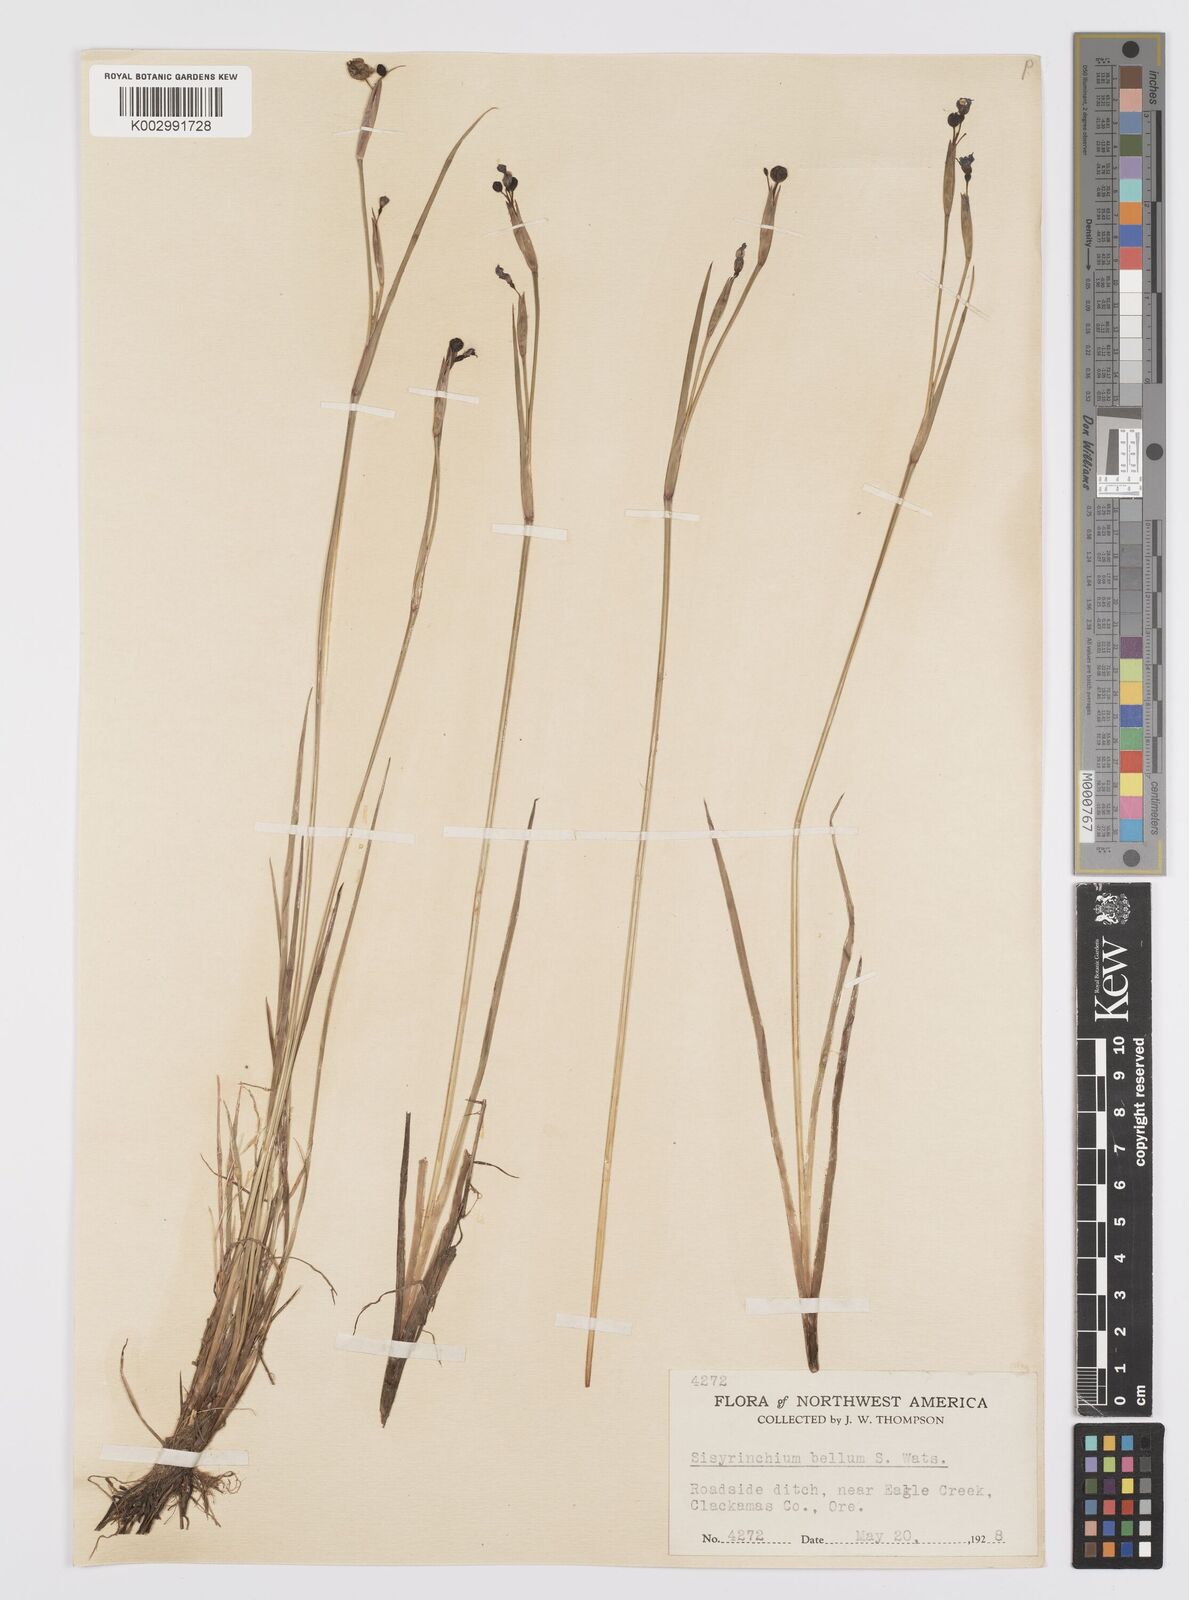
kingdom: Plantae
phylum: Tracheophyta
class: Liliopsida
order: Asparagales
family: Iridaceae
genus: Sisyrinchium
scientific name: Sisyrinchium bellum
